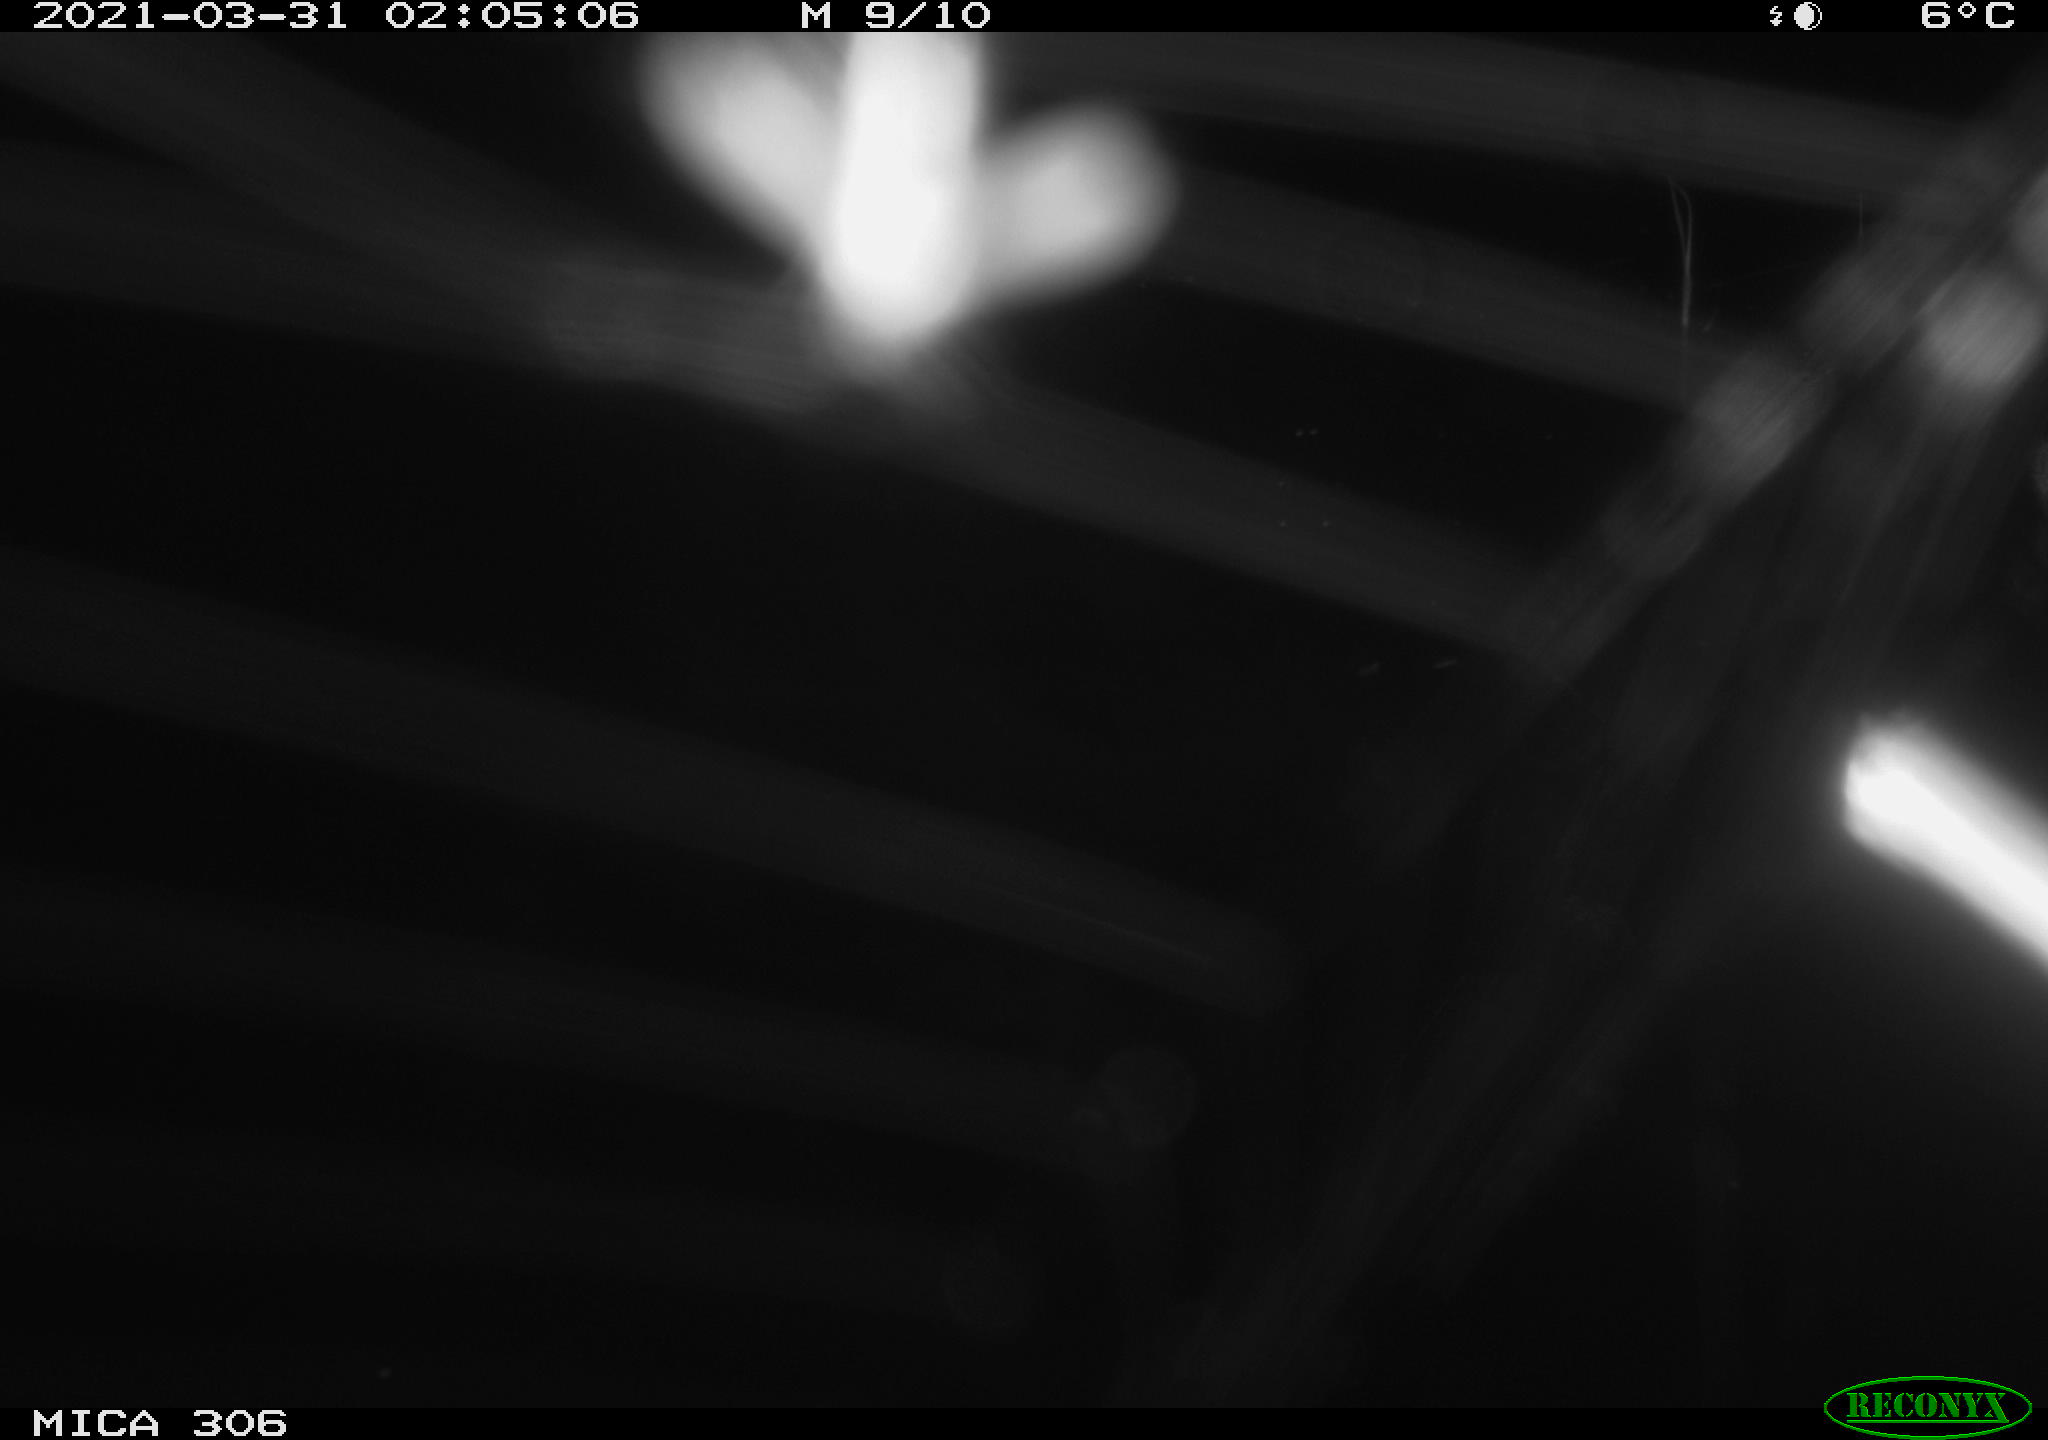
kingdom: Animalia
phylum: Chordata
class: Aves
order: Anseriformes
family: Anatidae
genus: Anas
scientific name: Anas platyrhynchos
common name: Mallard
